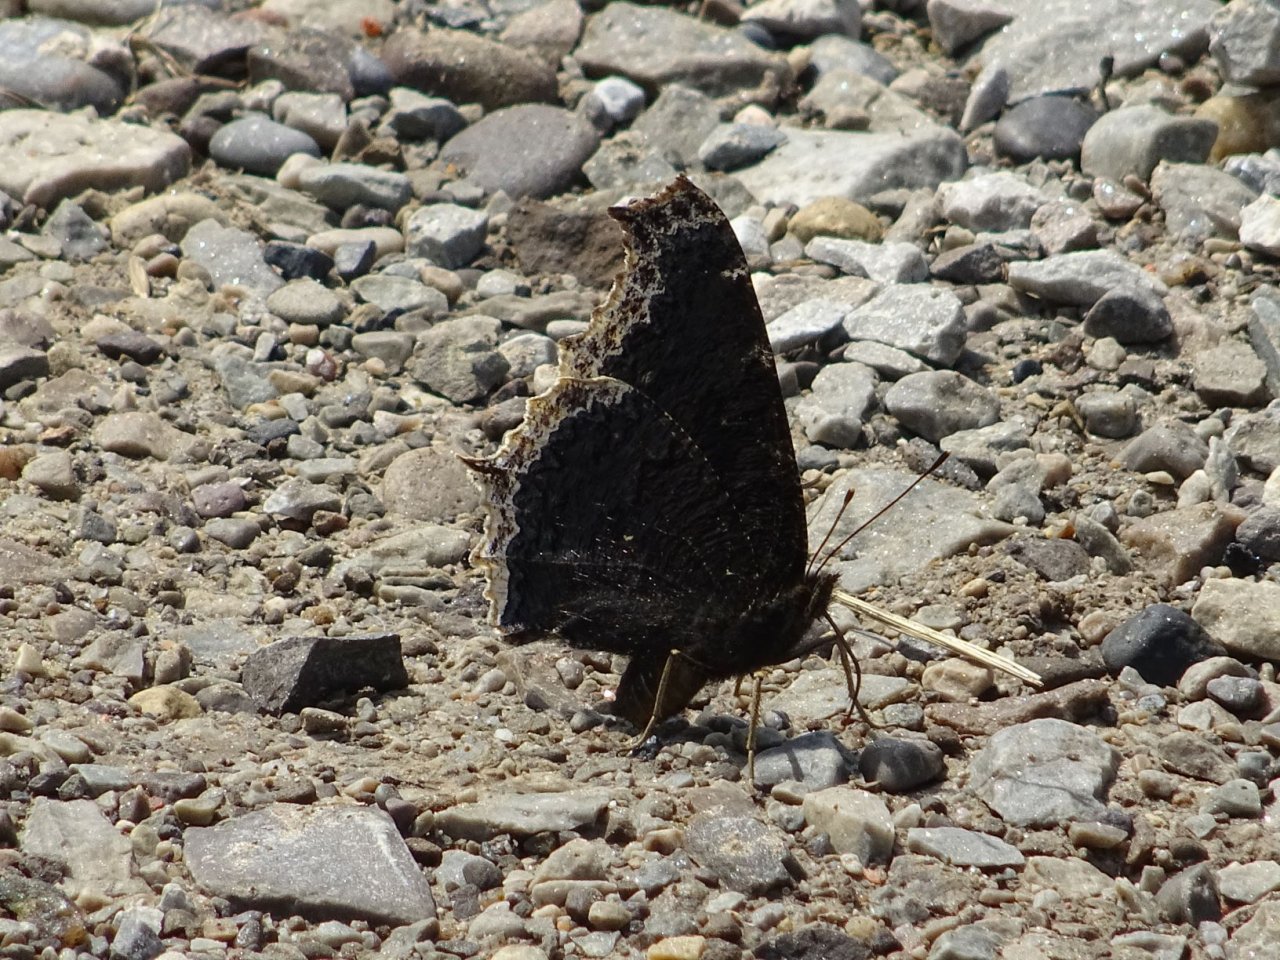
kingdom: Animalia
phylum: Arthropoda
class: Insecta
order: Lepidoptera
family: Nymphalidae
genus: Nymphalis
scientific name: Nymphalis antiopa
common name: Mourning Cloak
